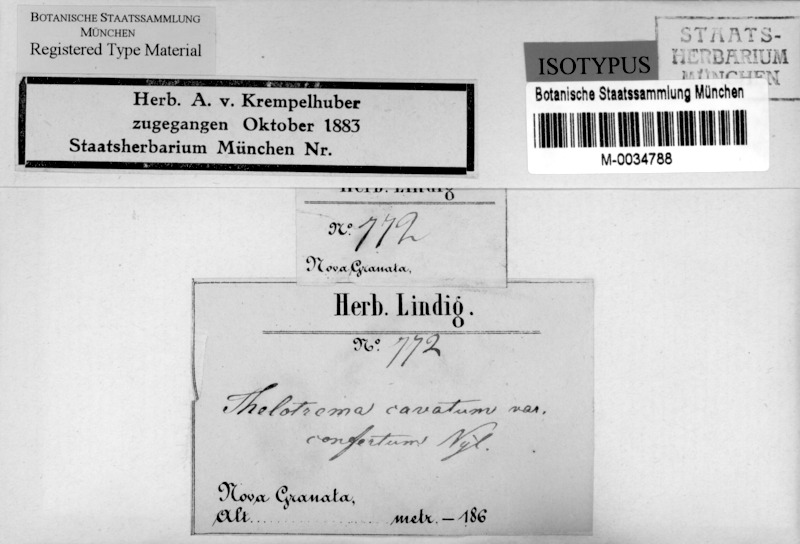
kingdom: Fungi
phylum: Ascomycota
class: Lecanoromycetes
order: Ostropales
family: Graphidaceae
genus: Ocellularia
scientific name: Ocellularia conferta
